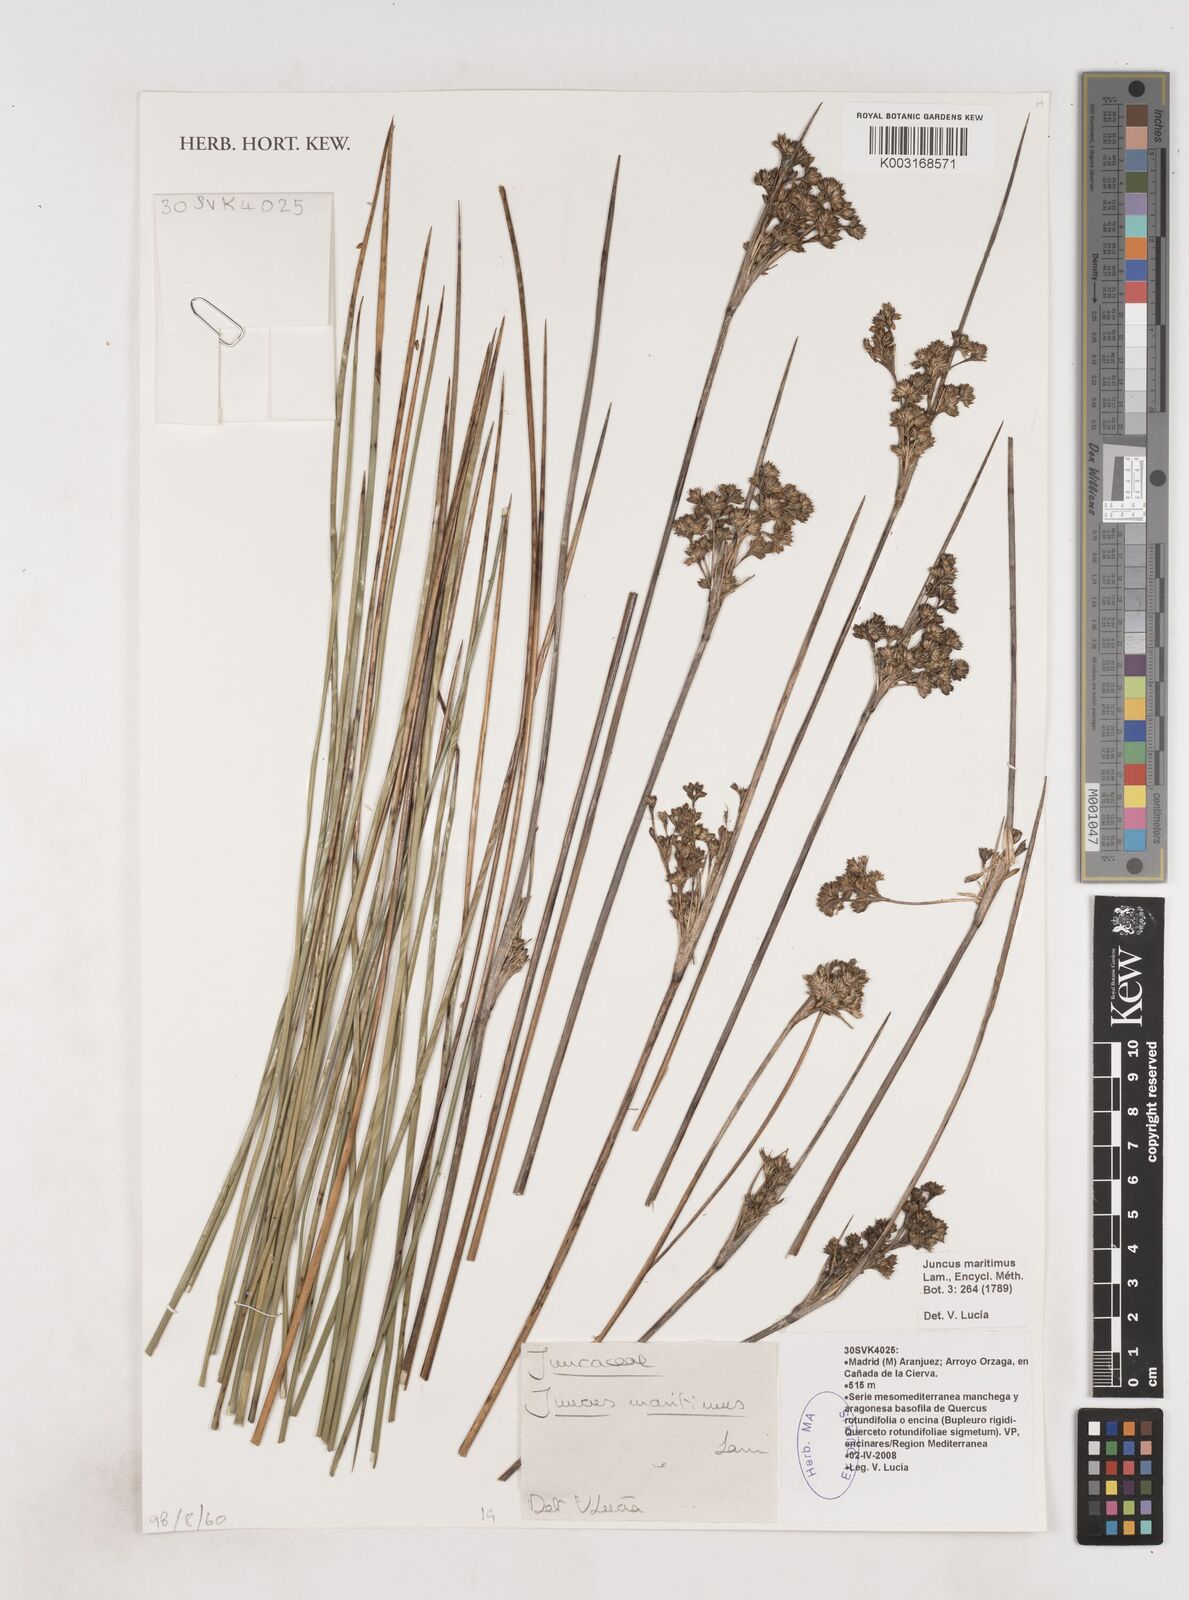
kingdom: Plantae
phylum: Tracheophyta
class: Liliopsida
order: Poales
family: Juncaceae
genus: Juncus
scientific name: Juncus maritimus
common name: Sea rush
